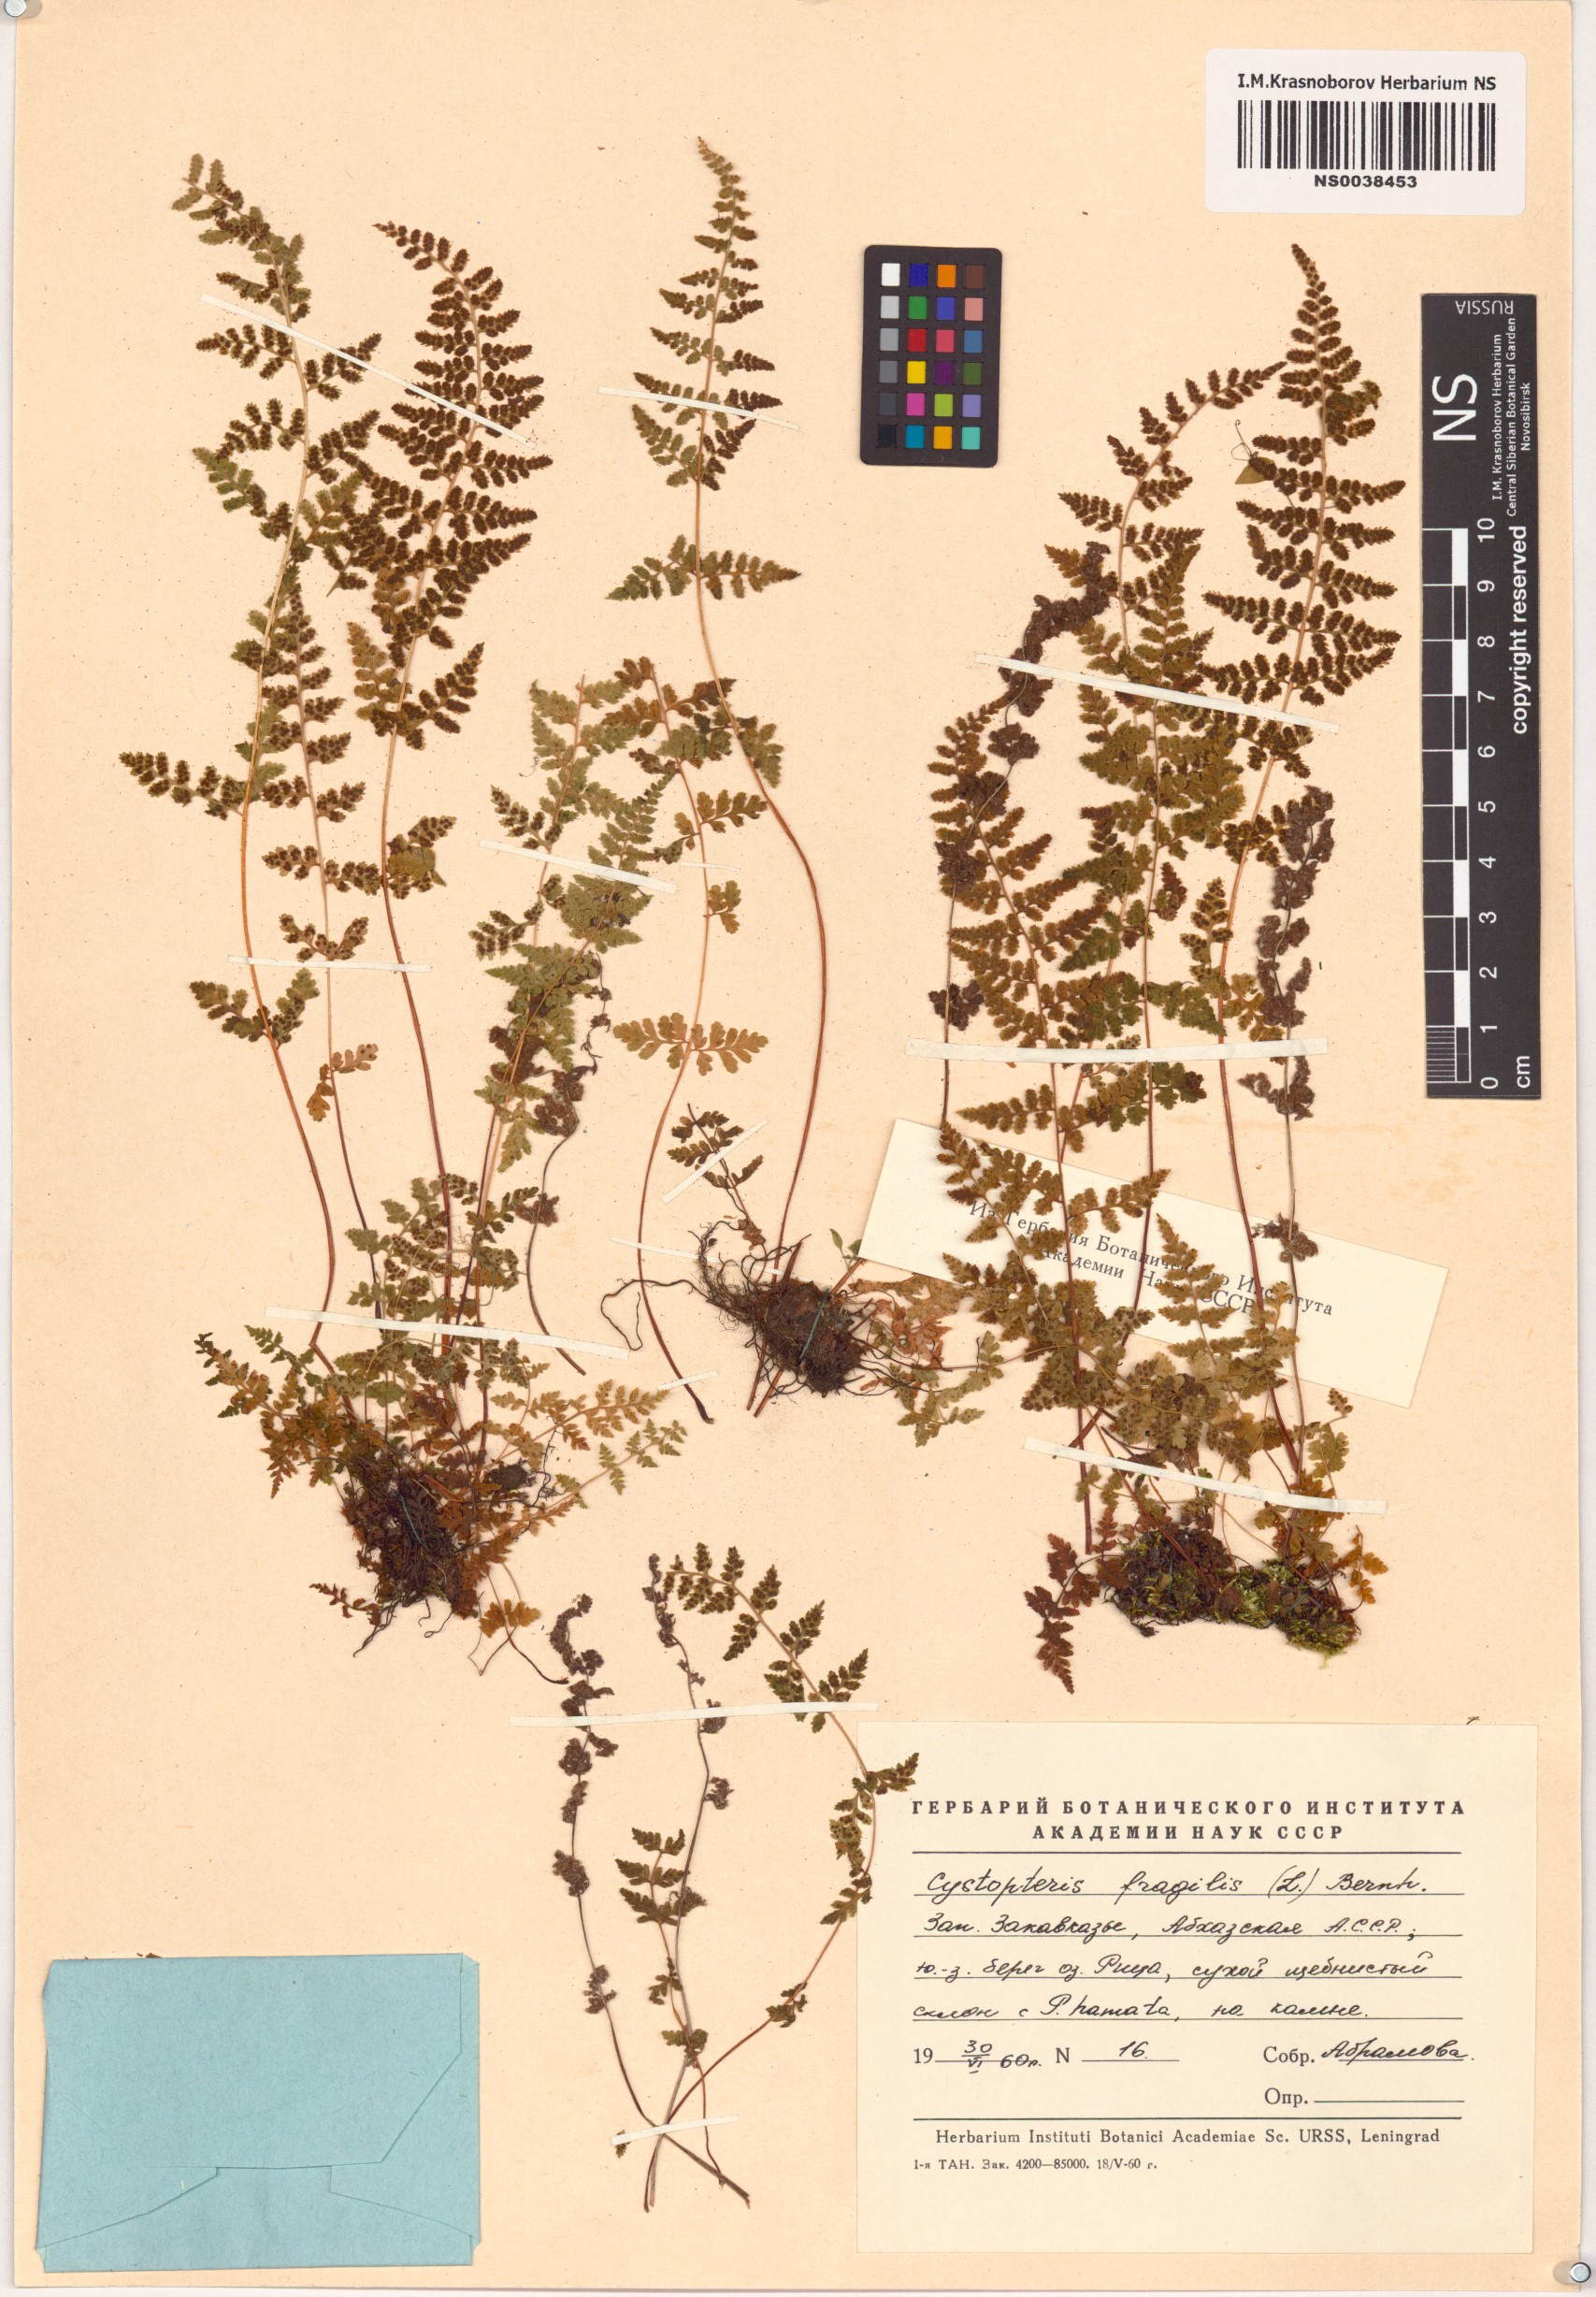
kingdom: Plantae
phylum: Tracheophyta
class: Polypodiopsida
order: Polypodiales
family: Cystopteridaceae
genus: Cystopteris
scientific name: Cystopteris fragilis
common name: Brittle bladder fern
